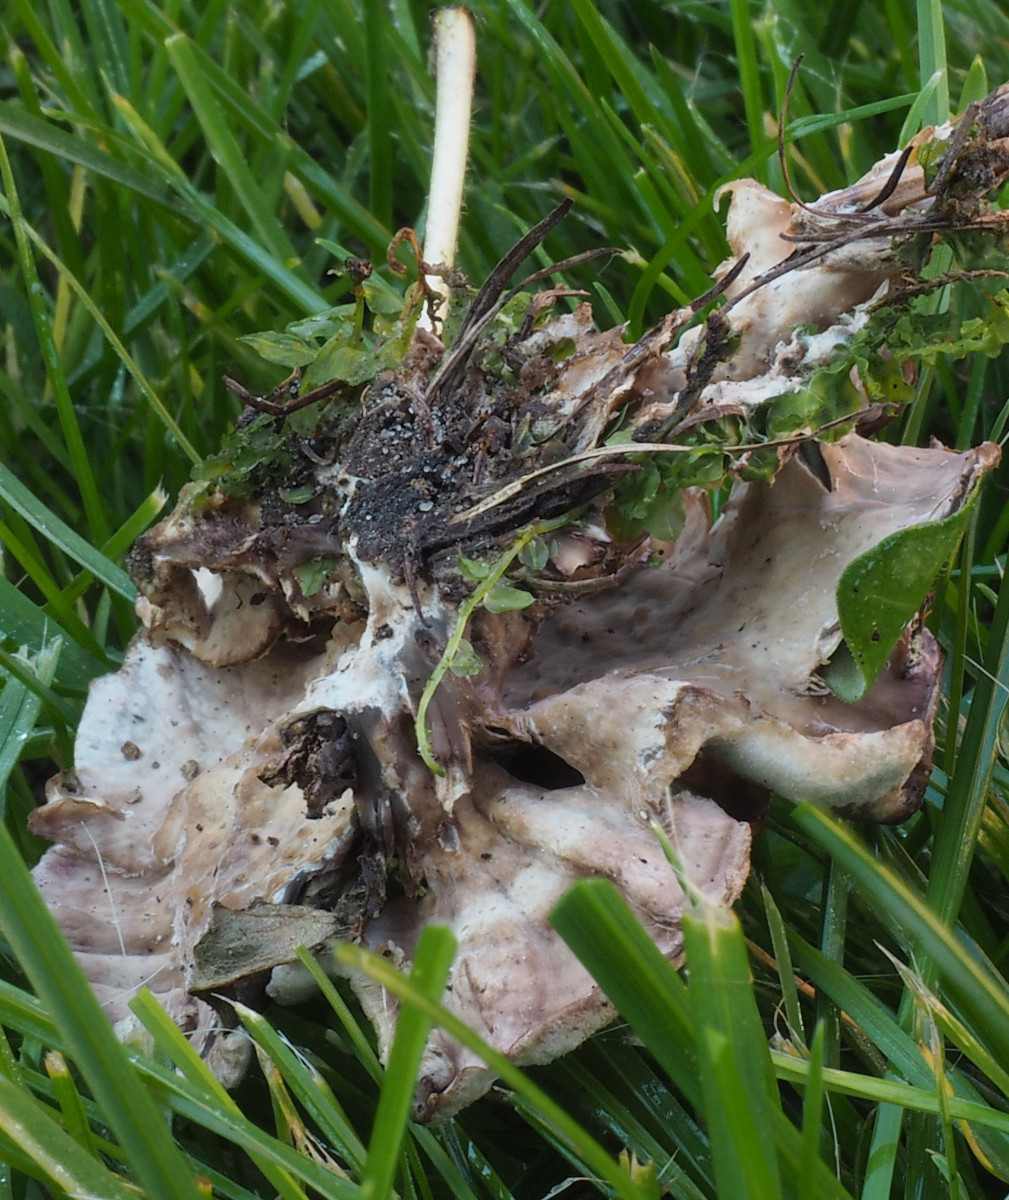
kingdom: Fungi
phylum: Basidiomycota
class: Agaricomycetes
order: Agaricales
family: Cyphellaceae
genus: Chondrostereum
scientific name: Chondrostereum purpureum
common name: purpurlædersvamp
